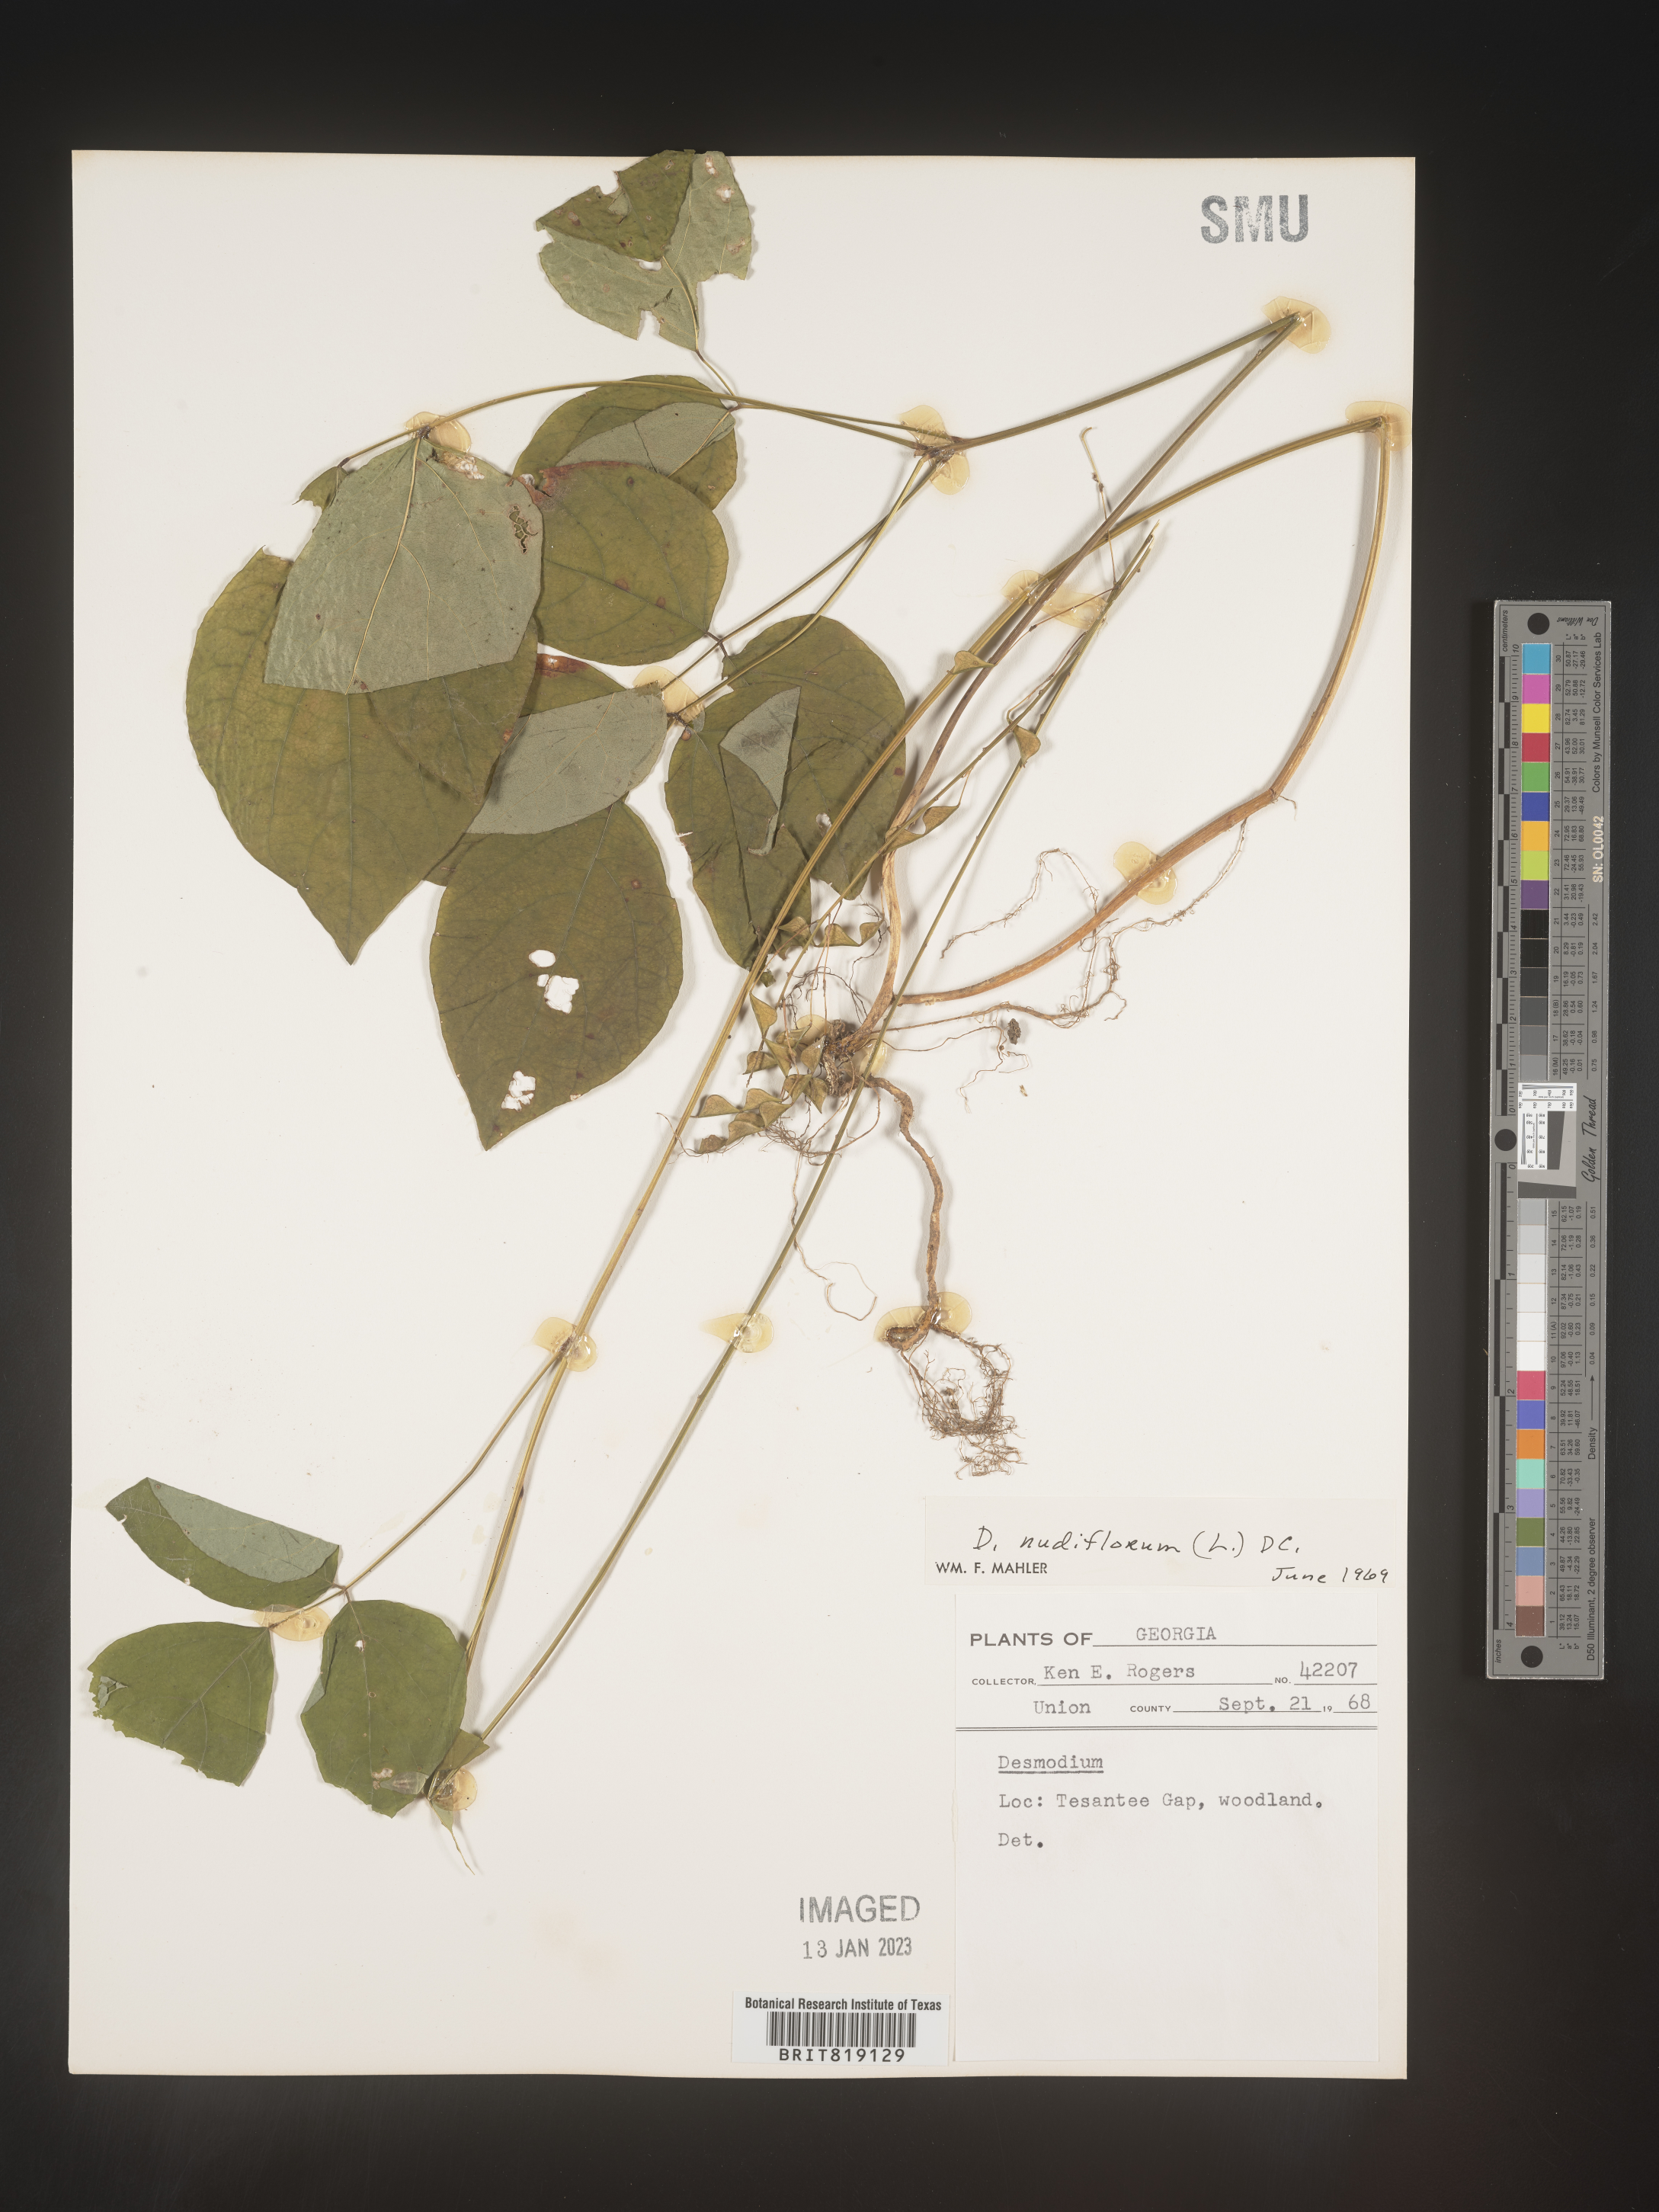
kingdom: Plantae
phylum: Tracheophyta
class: Magnoliopsida
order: Fabales
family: Fabaceae
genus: Hylodesmum
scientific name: Hylodesmum nudiflorum
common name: Bare-stemmed tick-trefoil
